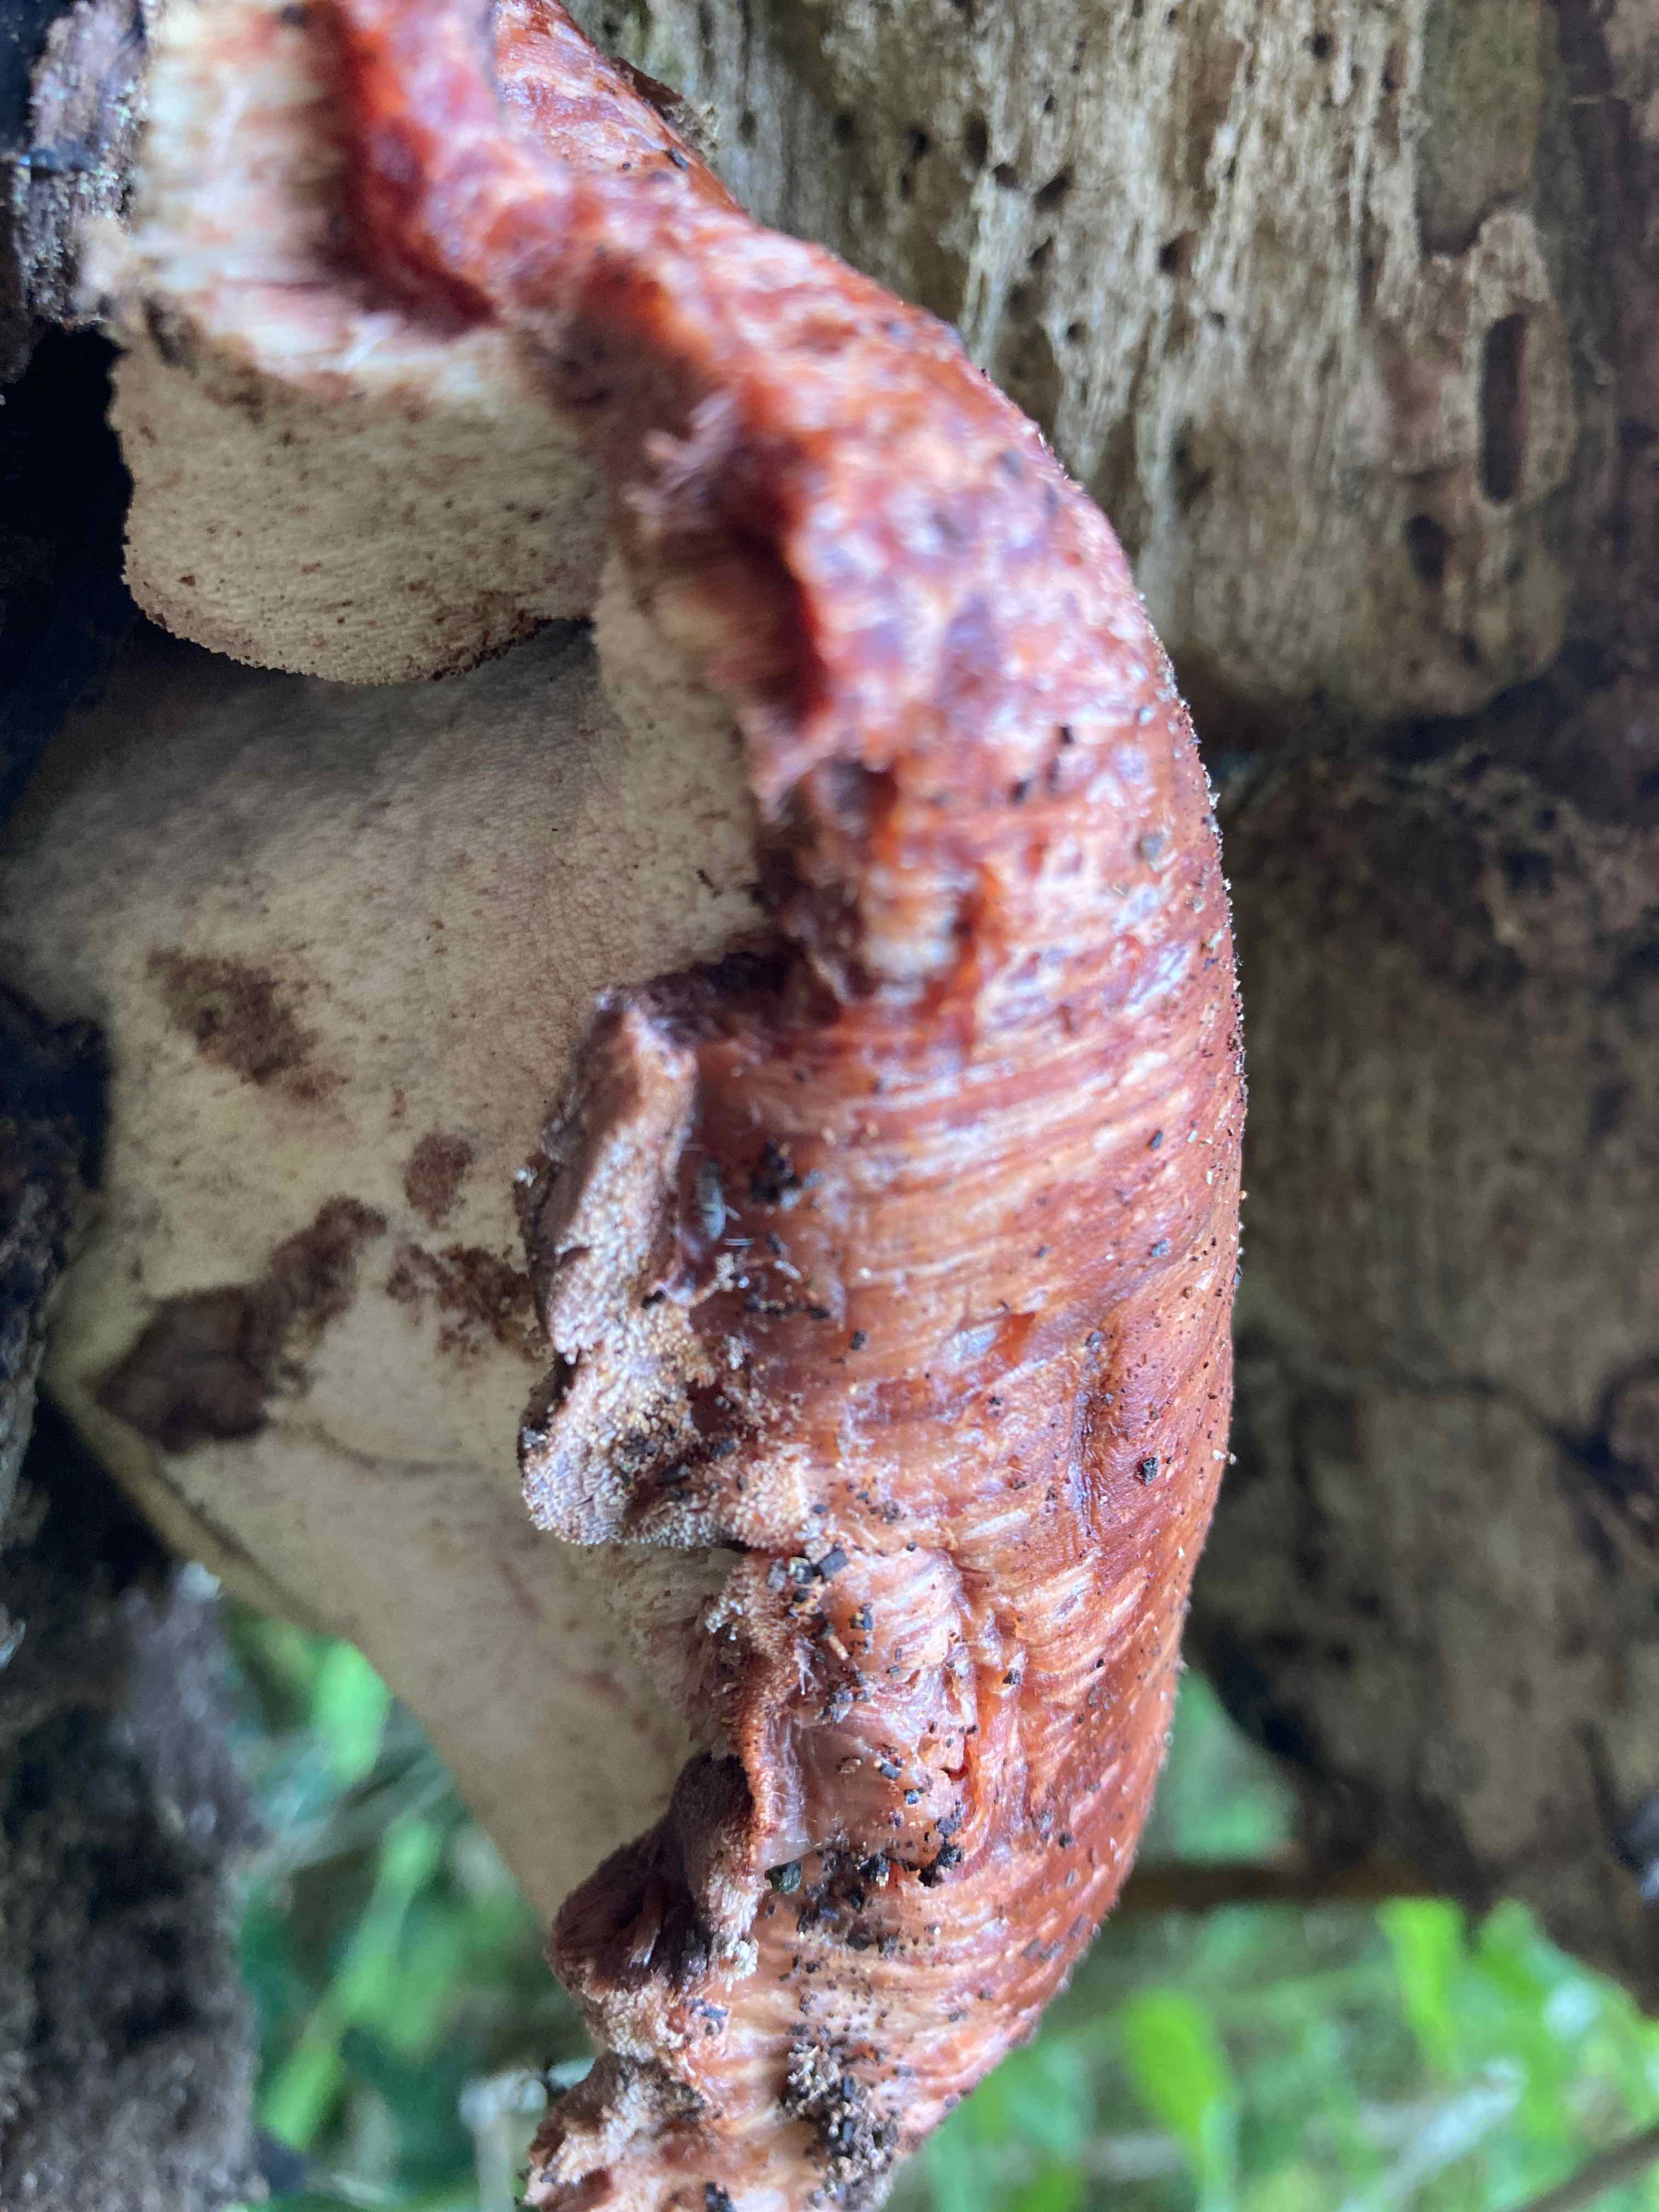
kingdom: Fungi
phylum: Basidiomycota
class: Agaricomycetes
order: Agaricales
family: Fistulinaceae
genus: Fistulina
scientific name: Fistulina hepatica
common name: oksetunge
